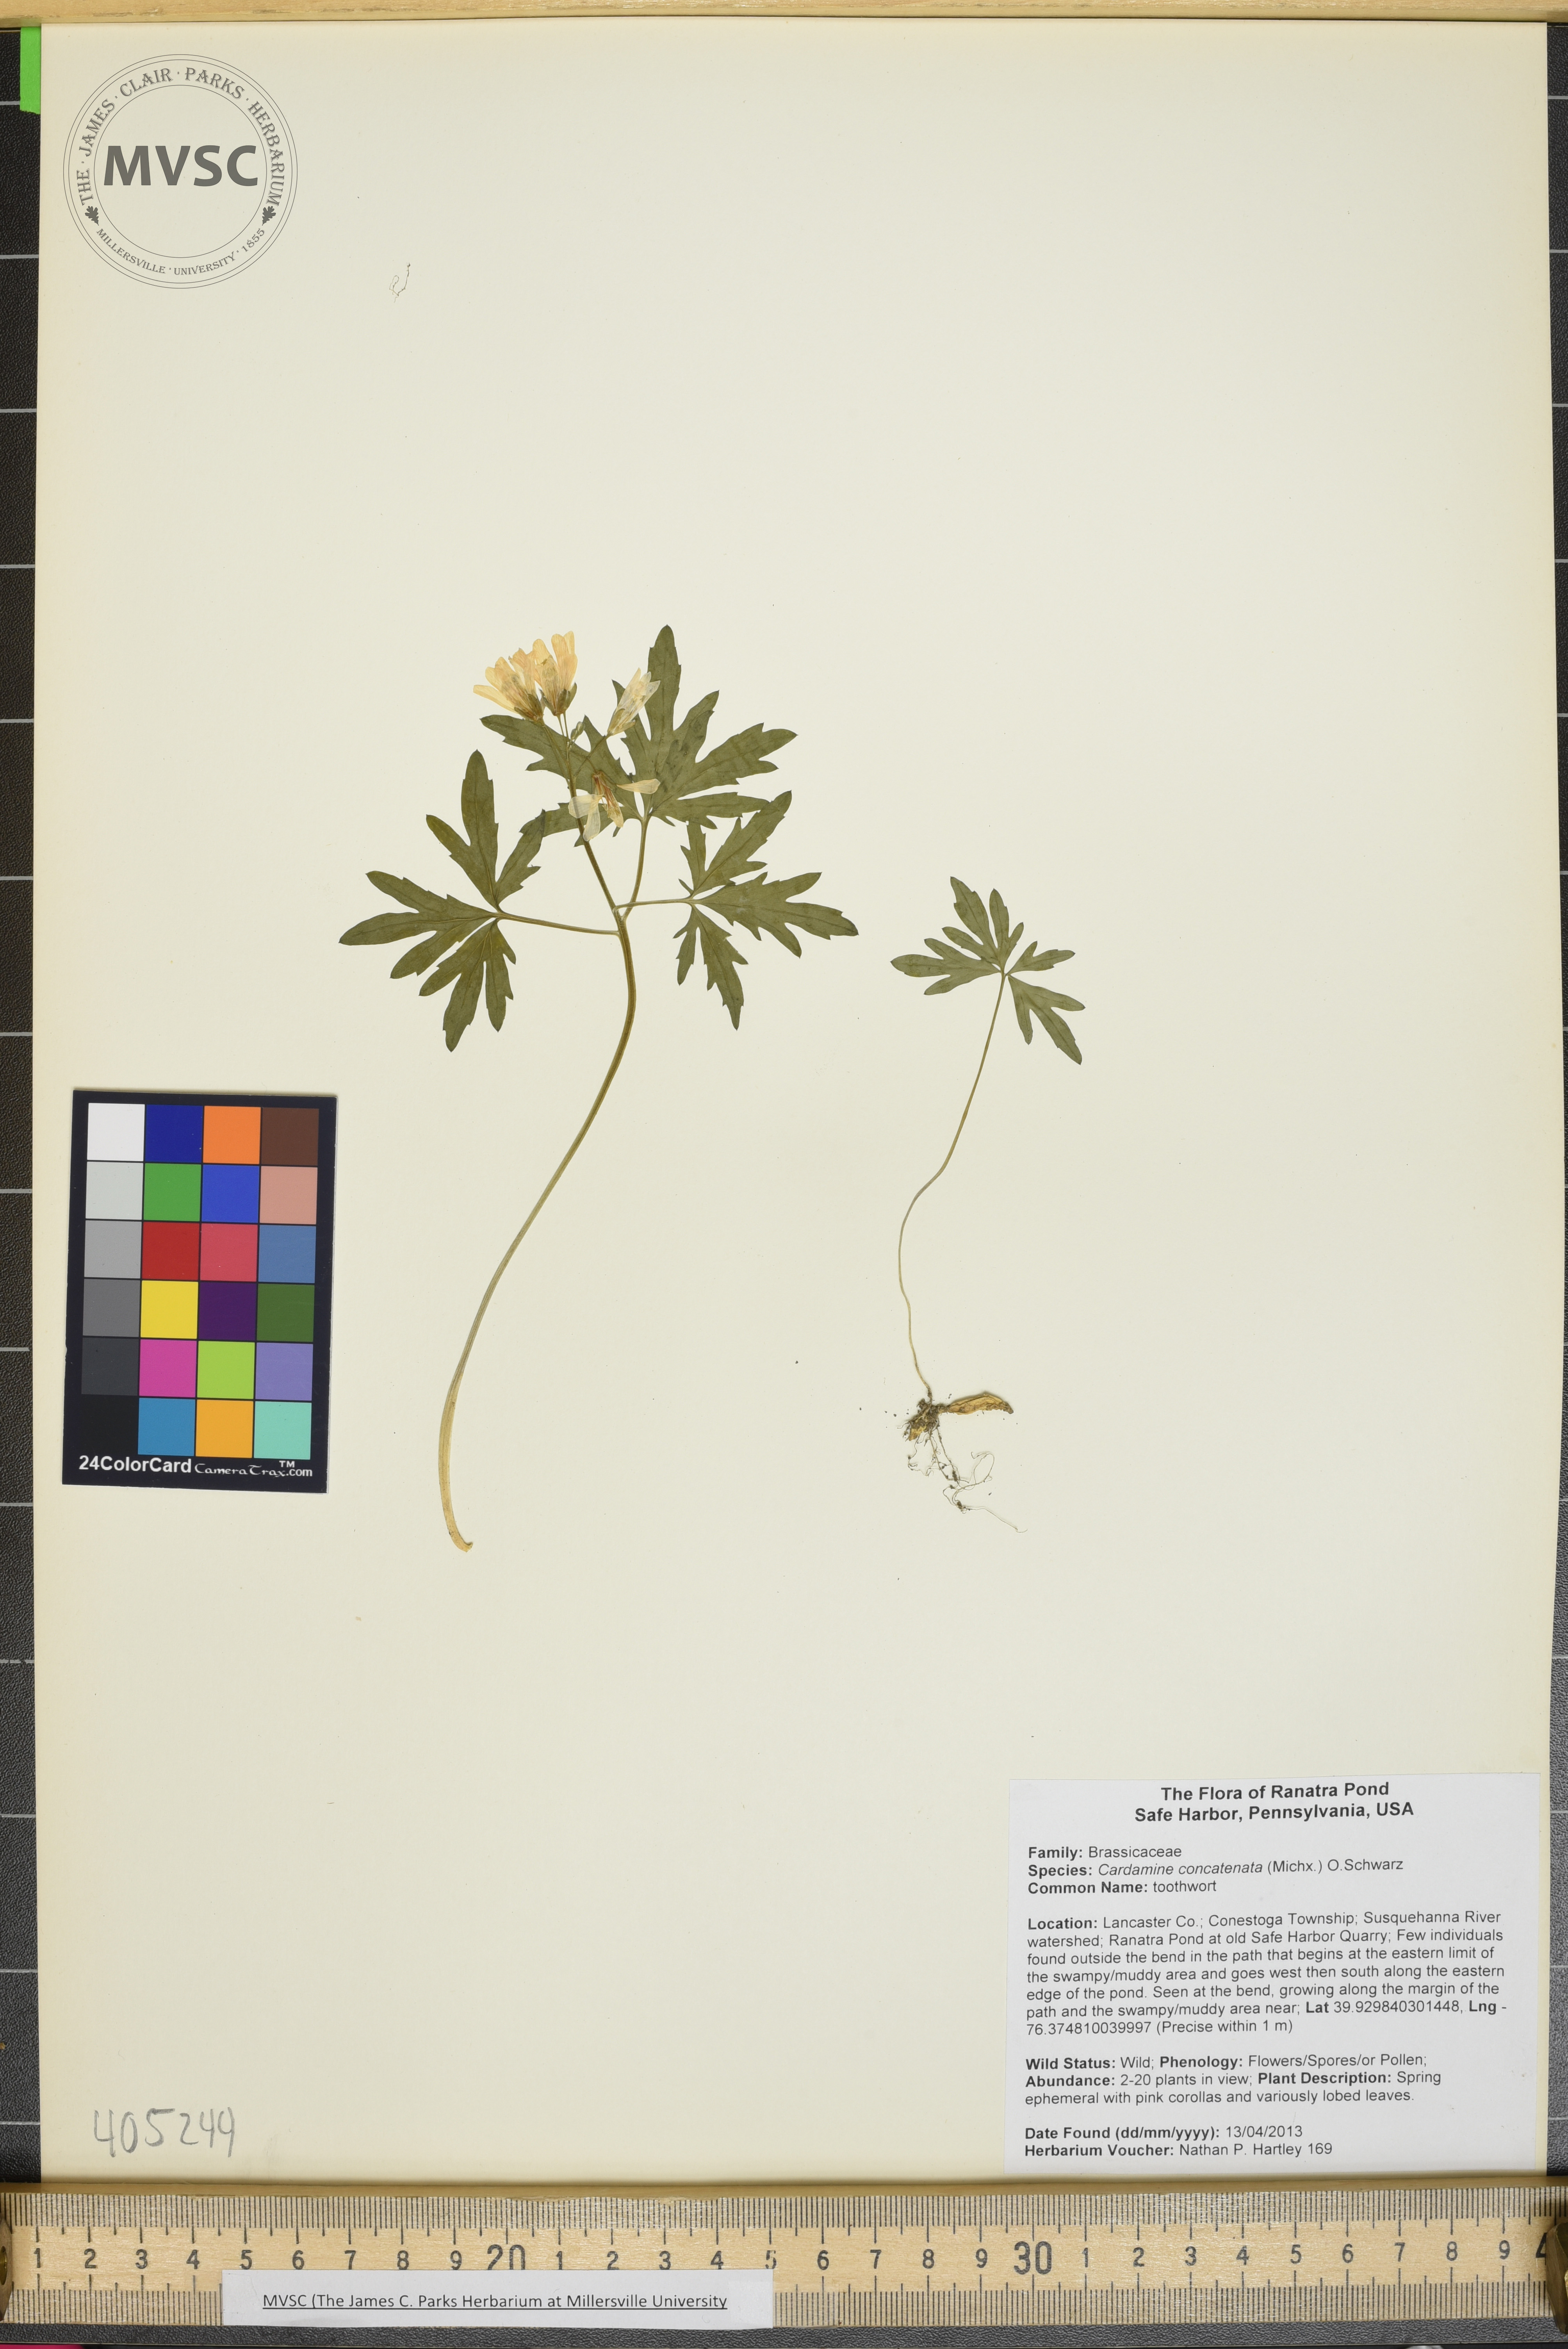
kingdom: Plantae
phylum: Tracheophyta
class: Magnoliopsida
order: Brassicales
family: Brassicaceae
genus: Cardamine
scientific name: Cardamine concatenata
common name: toothwort
